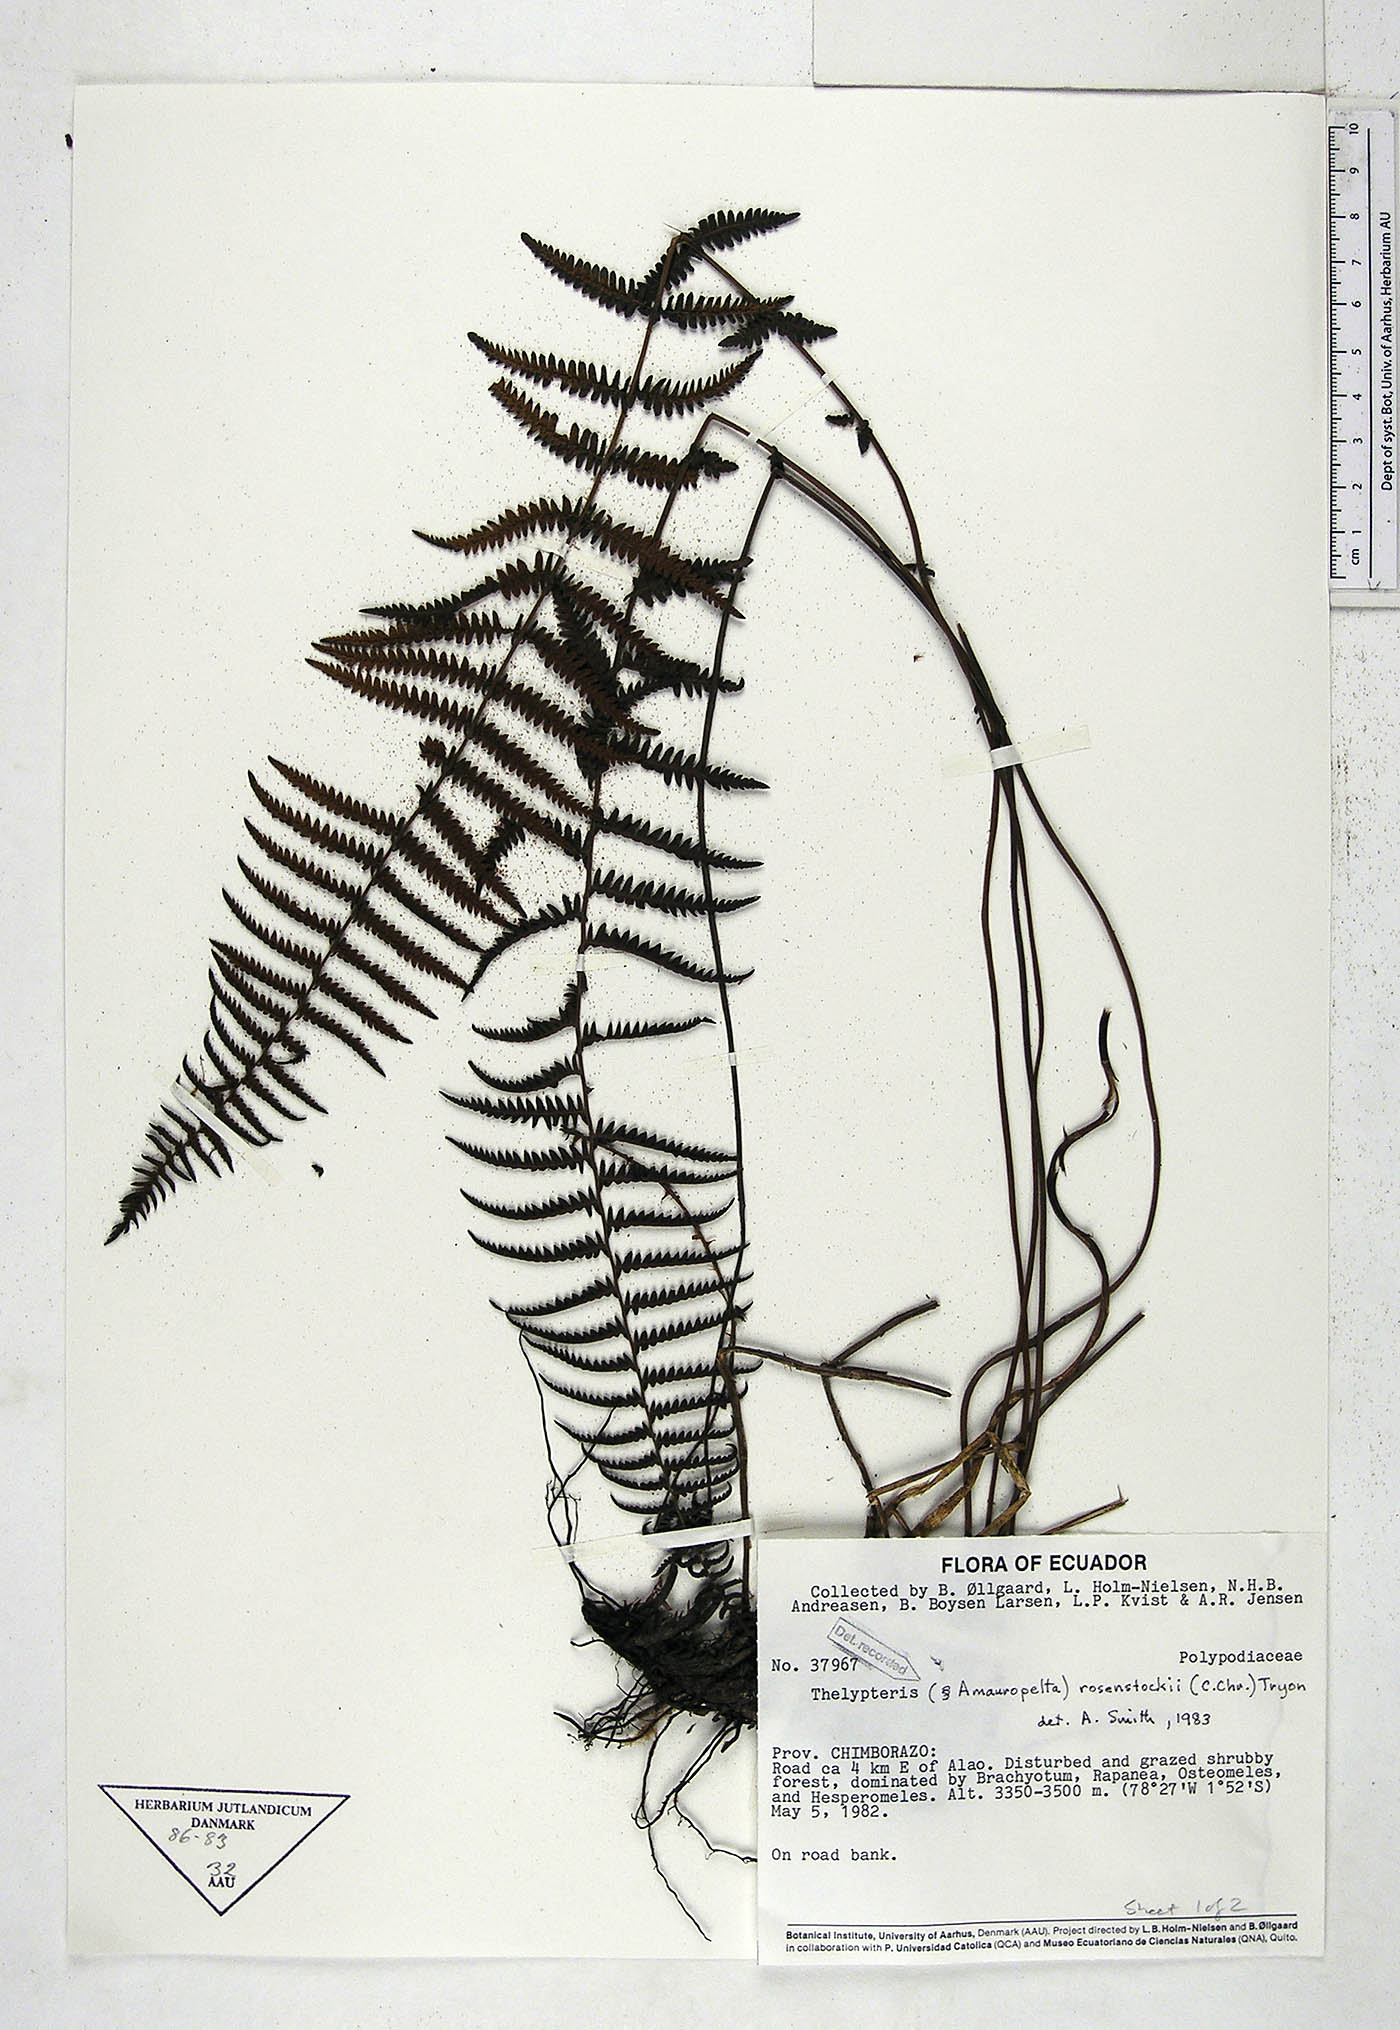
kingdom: Plantae
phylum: Tracheophyta
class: Polypodiopsida
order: Polypodiales
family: Thelypteridaceae
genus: Amauropelta
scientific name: Amauropelta rosenstockii
